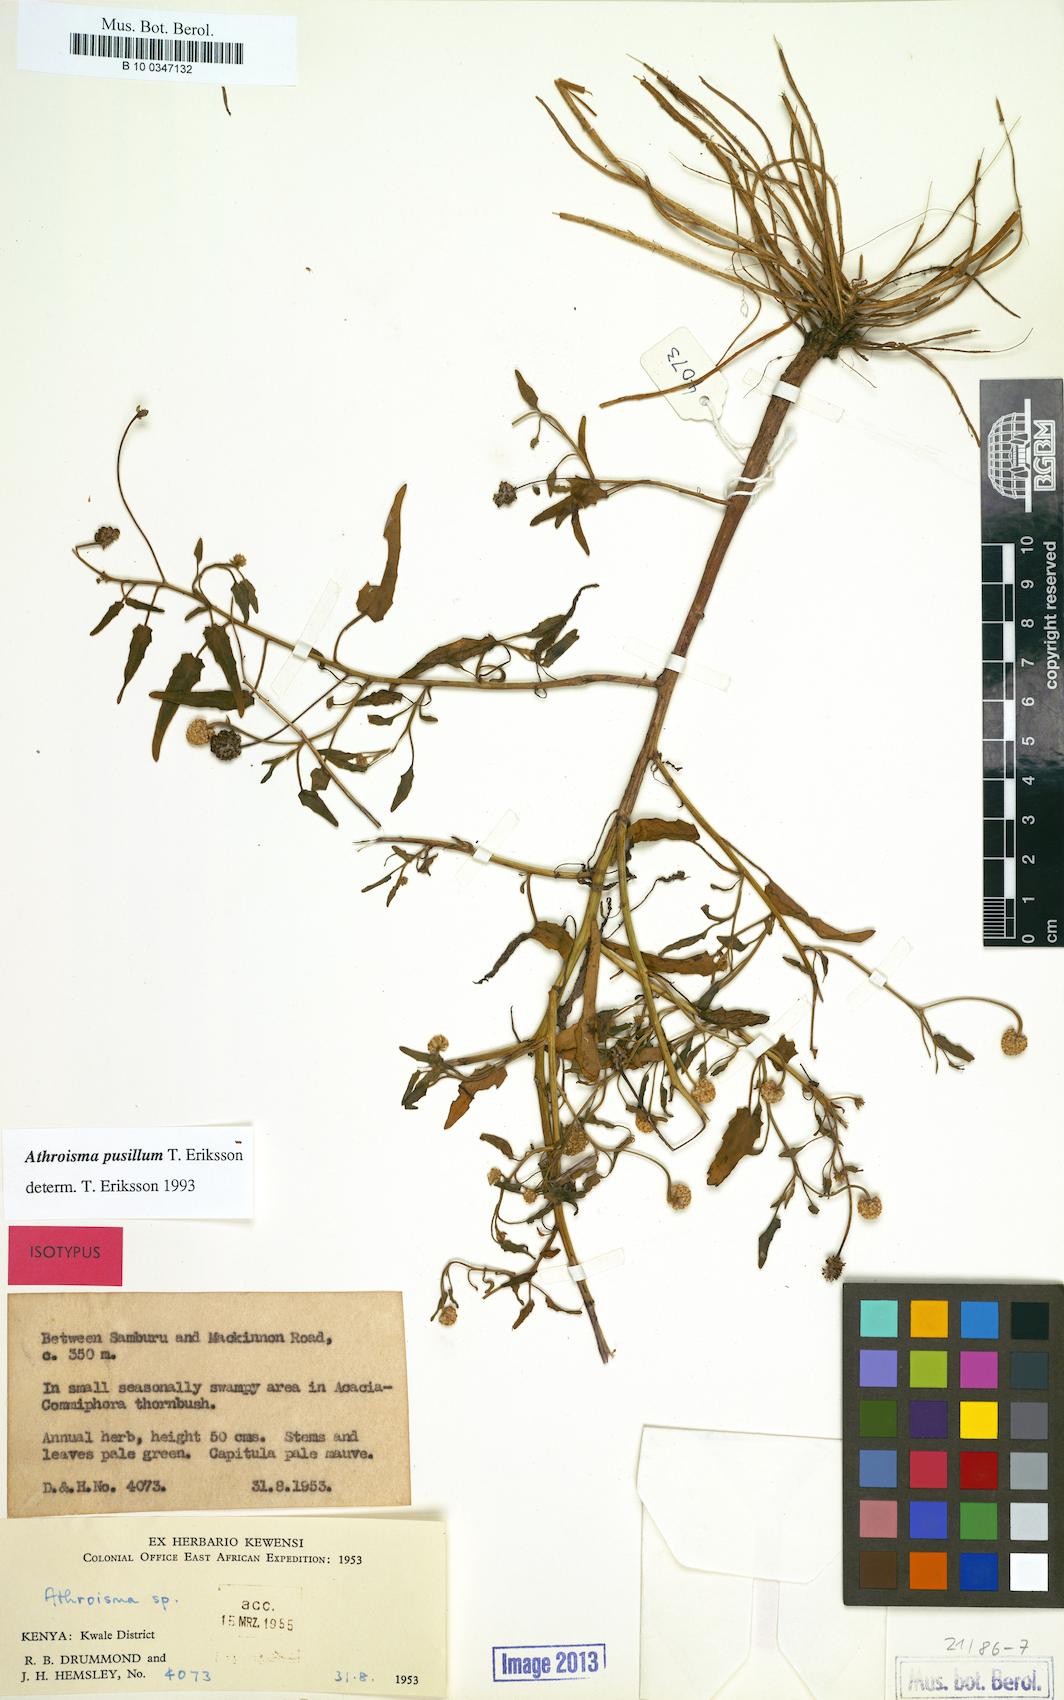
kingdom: Plantae
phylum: Tracheophyta
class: Magnoliopsida
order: Asterales
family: Asteraceae
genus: Athroisma
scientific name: Athroisma pusillum
